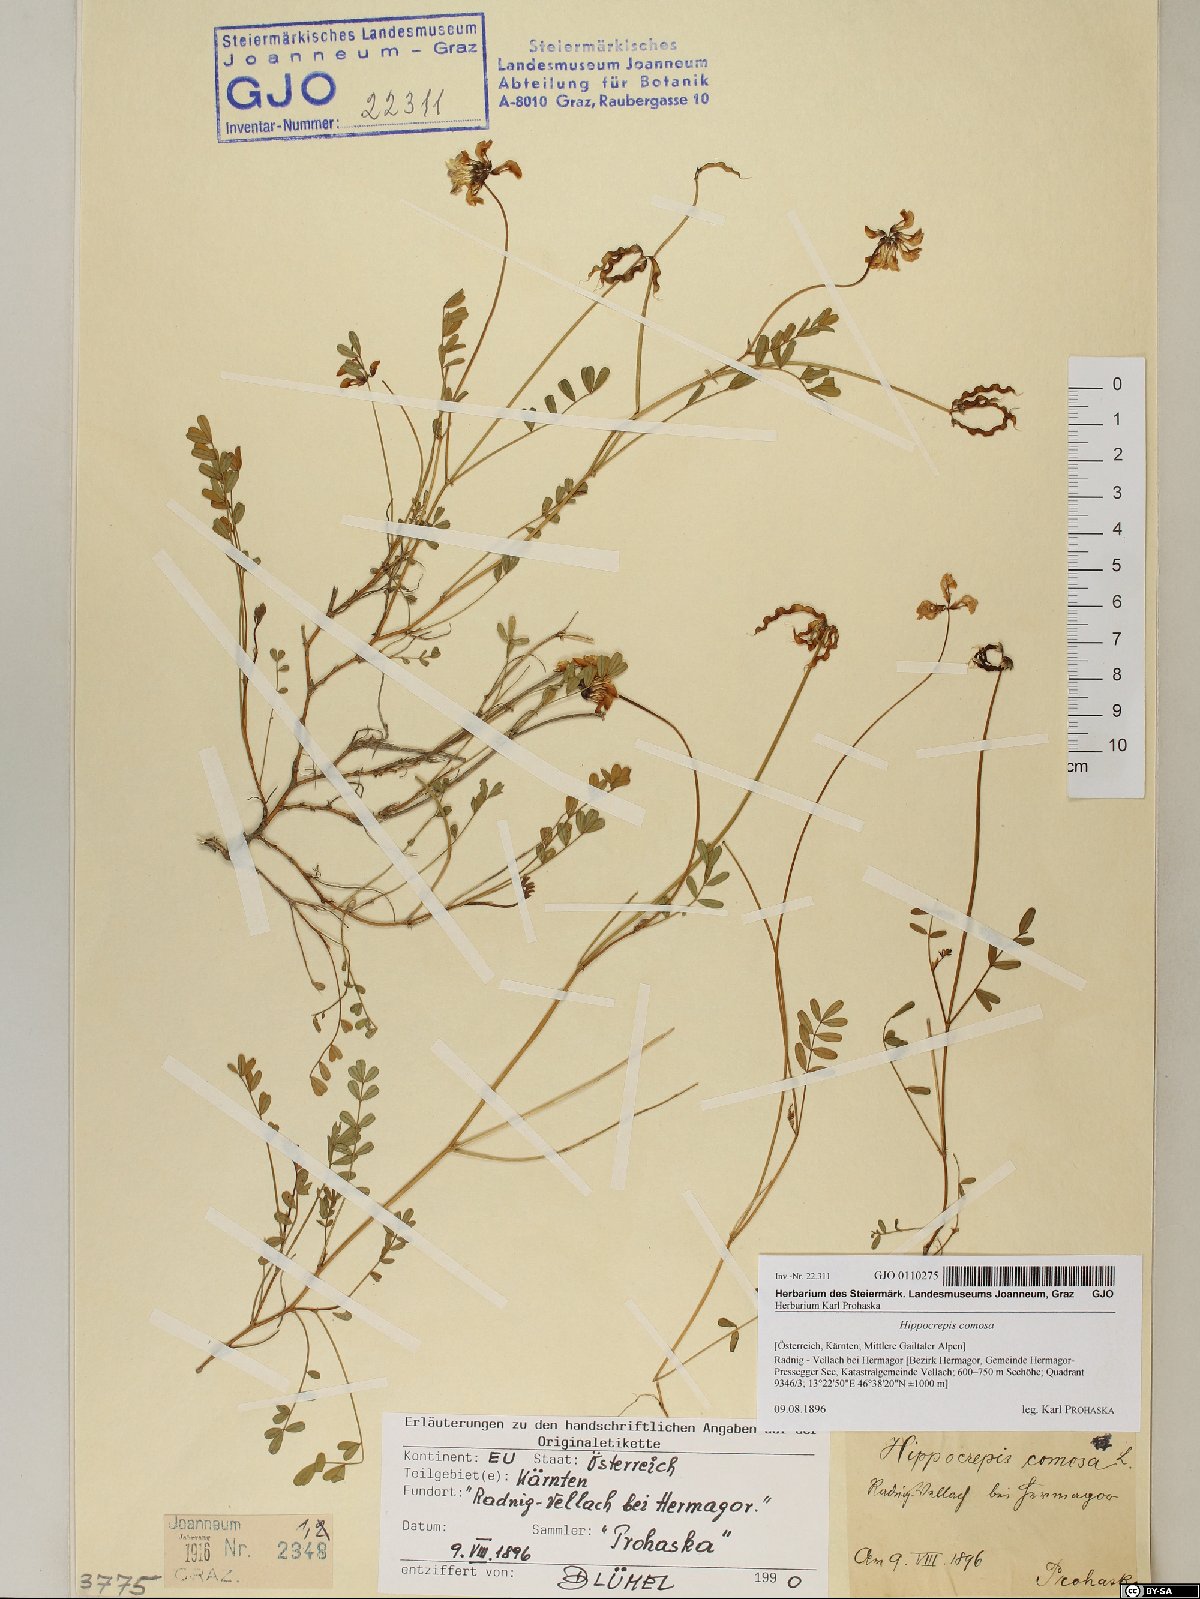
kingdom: Plantae
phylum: Tracheophyta
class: Magnoliopsida
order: Fabales
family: Fabaceae
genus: Hippocrepis
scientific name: Hippocrepis comosa
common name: Horseshoe vetch
